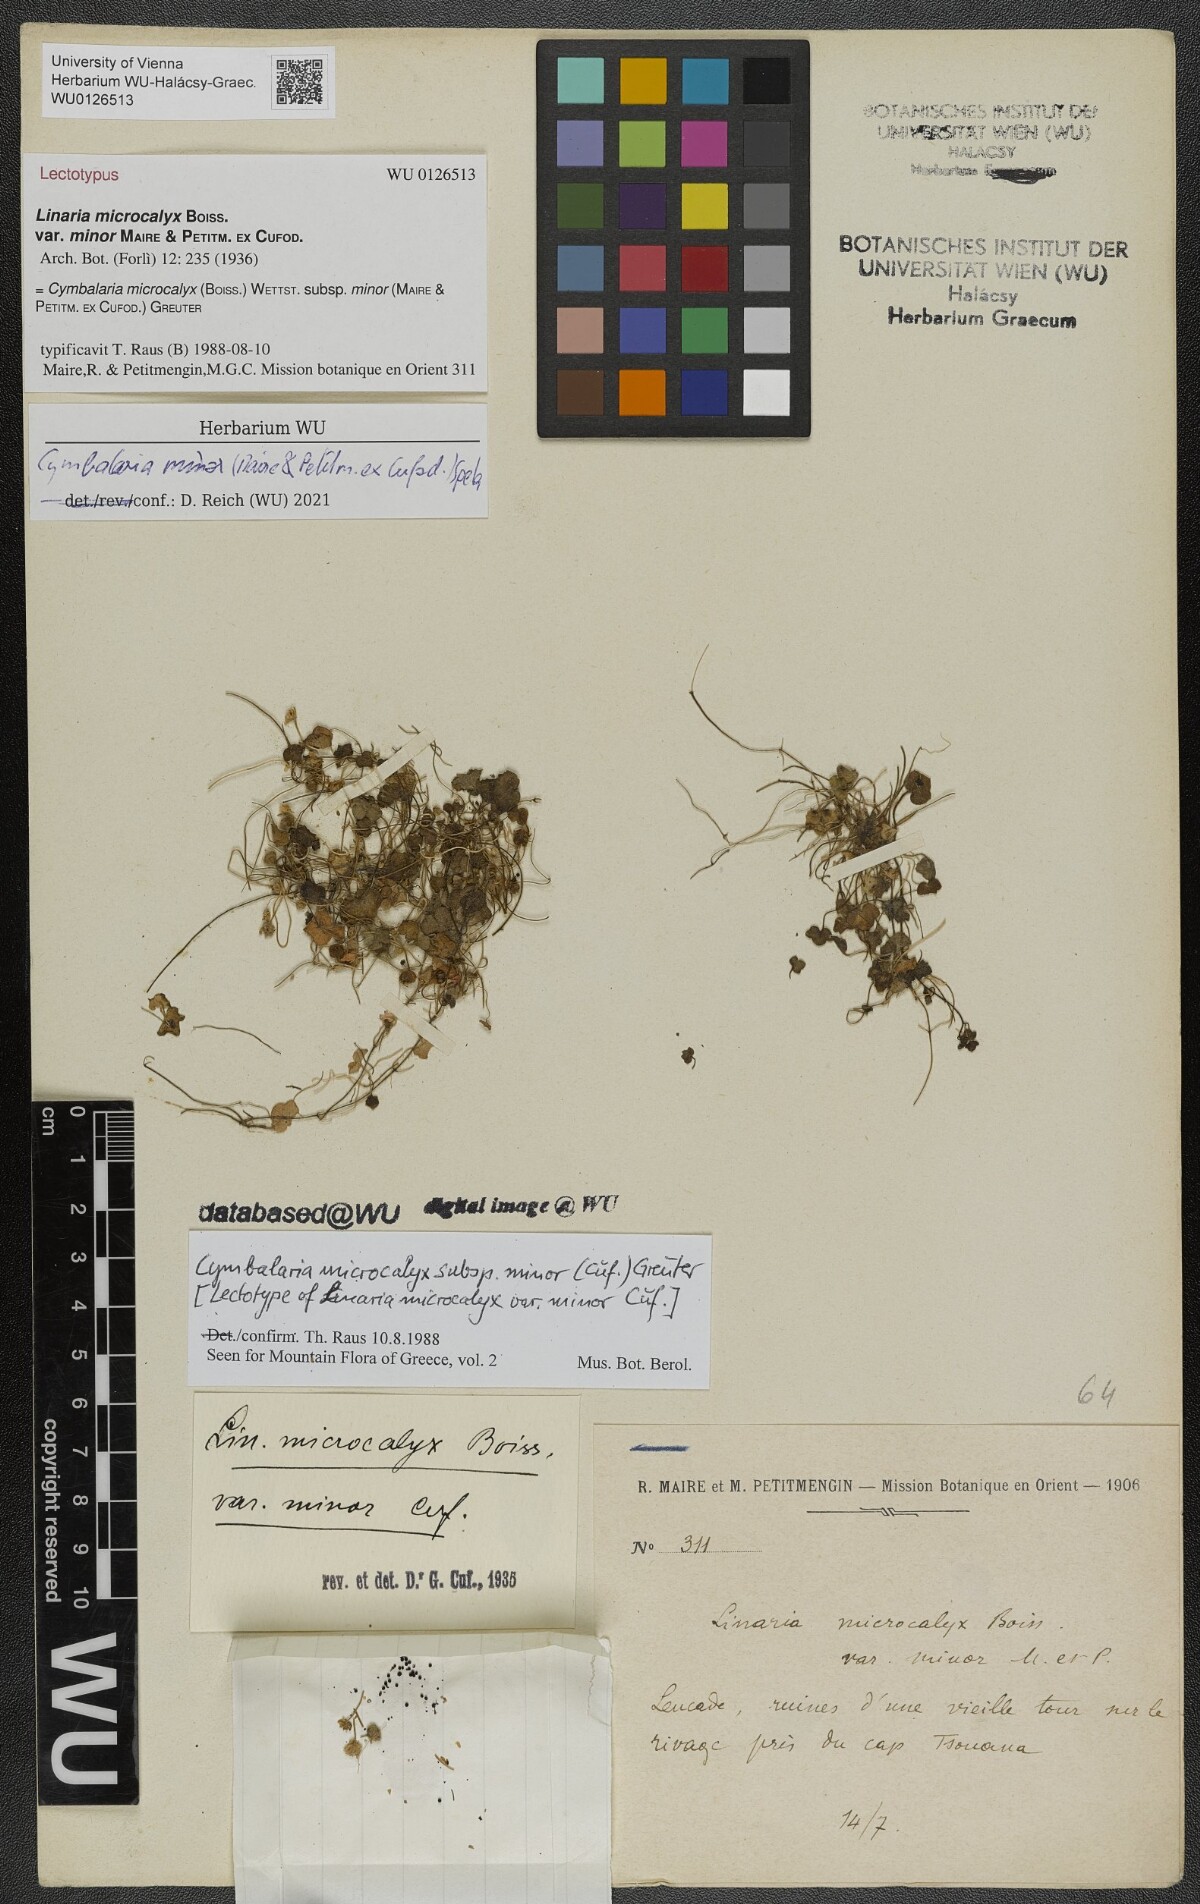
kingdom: Plantae
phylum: Tracheophyta
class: Magnoliopsida
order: Lamiales
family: Plantaginaceae
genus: Cymbalaria
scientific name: Cymbalaria minor
